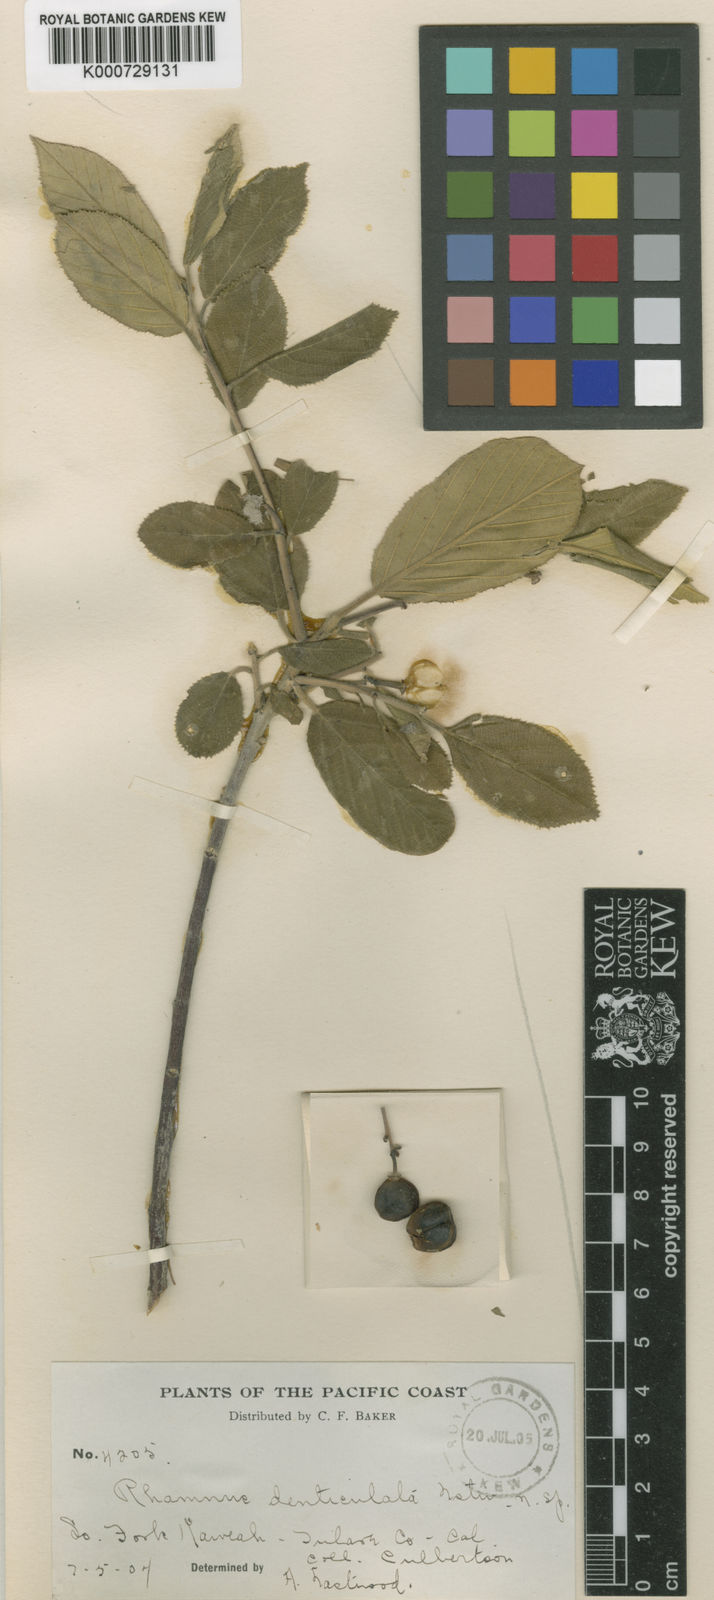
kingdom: Plantae
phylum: Tracheophyta
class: Magnoliopsida
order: Rosales
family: Rhamnaceae
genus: Rhamnus
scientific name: Rhamnus
